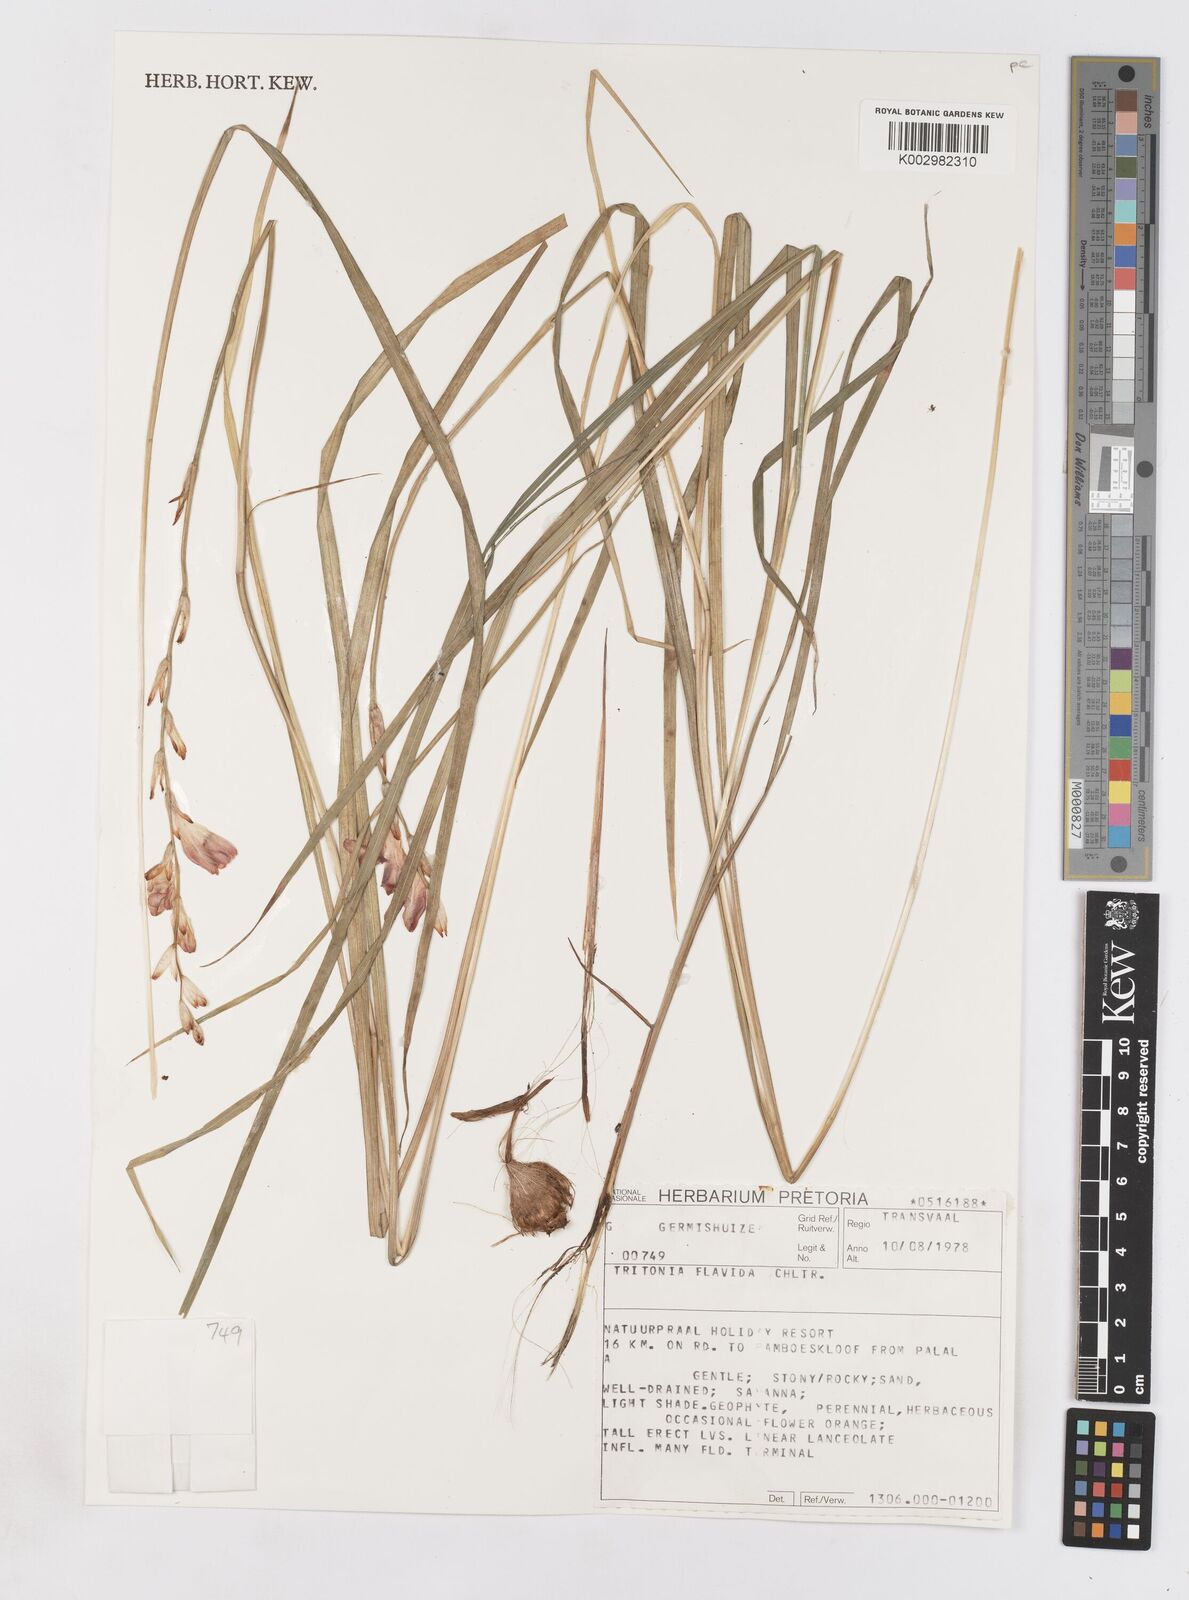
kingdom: Plantae
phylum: Tracheophyta
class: Liliopsida
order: Asparagales
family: Iridaceae
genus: Tritonia
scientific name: Tritonia gladiolaris
